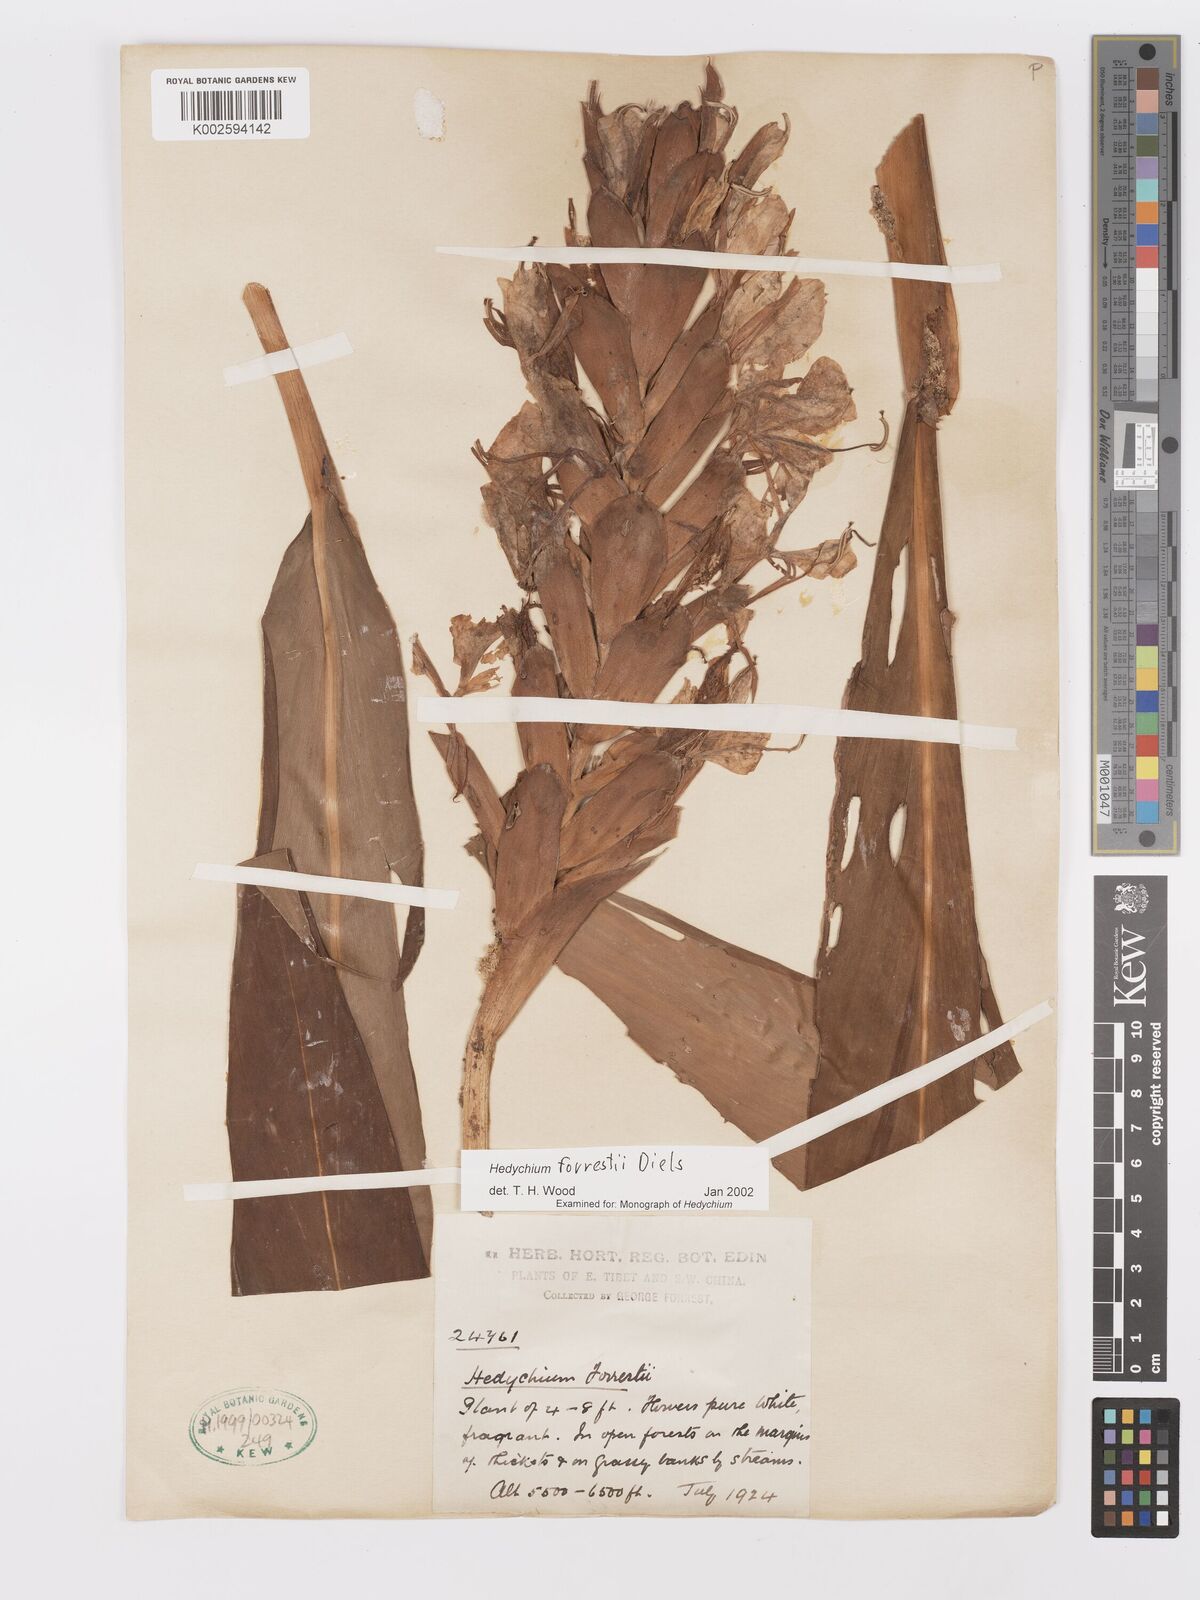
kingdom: Plantae
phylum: Tracheophyta
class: Liliopsida
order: Zingiberales
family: Zingiberaceae
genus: Hedychium
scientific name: Hedychium forrestii
